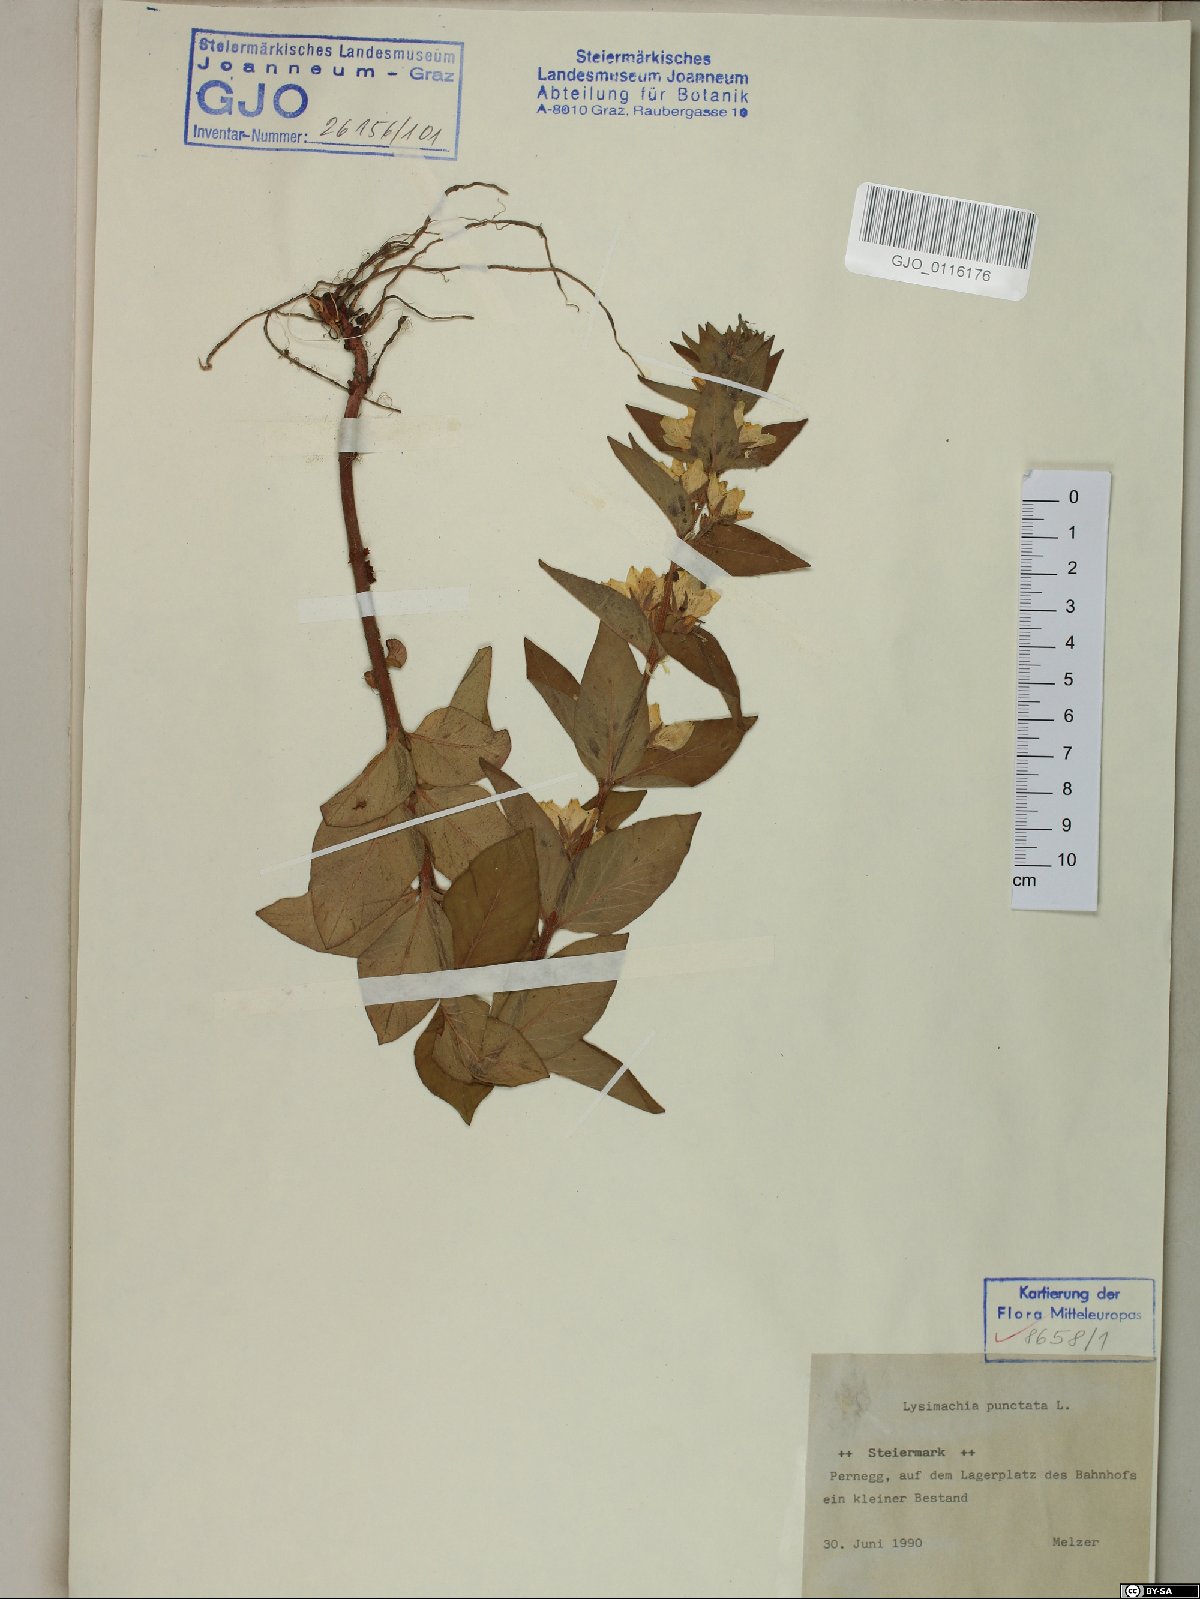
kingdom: Plantae
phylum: Tracheophyta
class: Magnoliopsida
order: Ericales
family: Primulaceae
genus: Lysimachia
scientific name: Lysimachia punctata
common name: Dotted loosestrife
